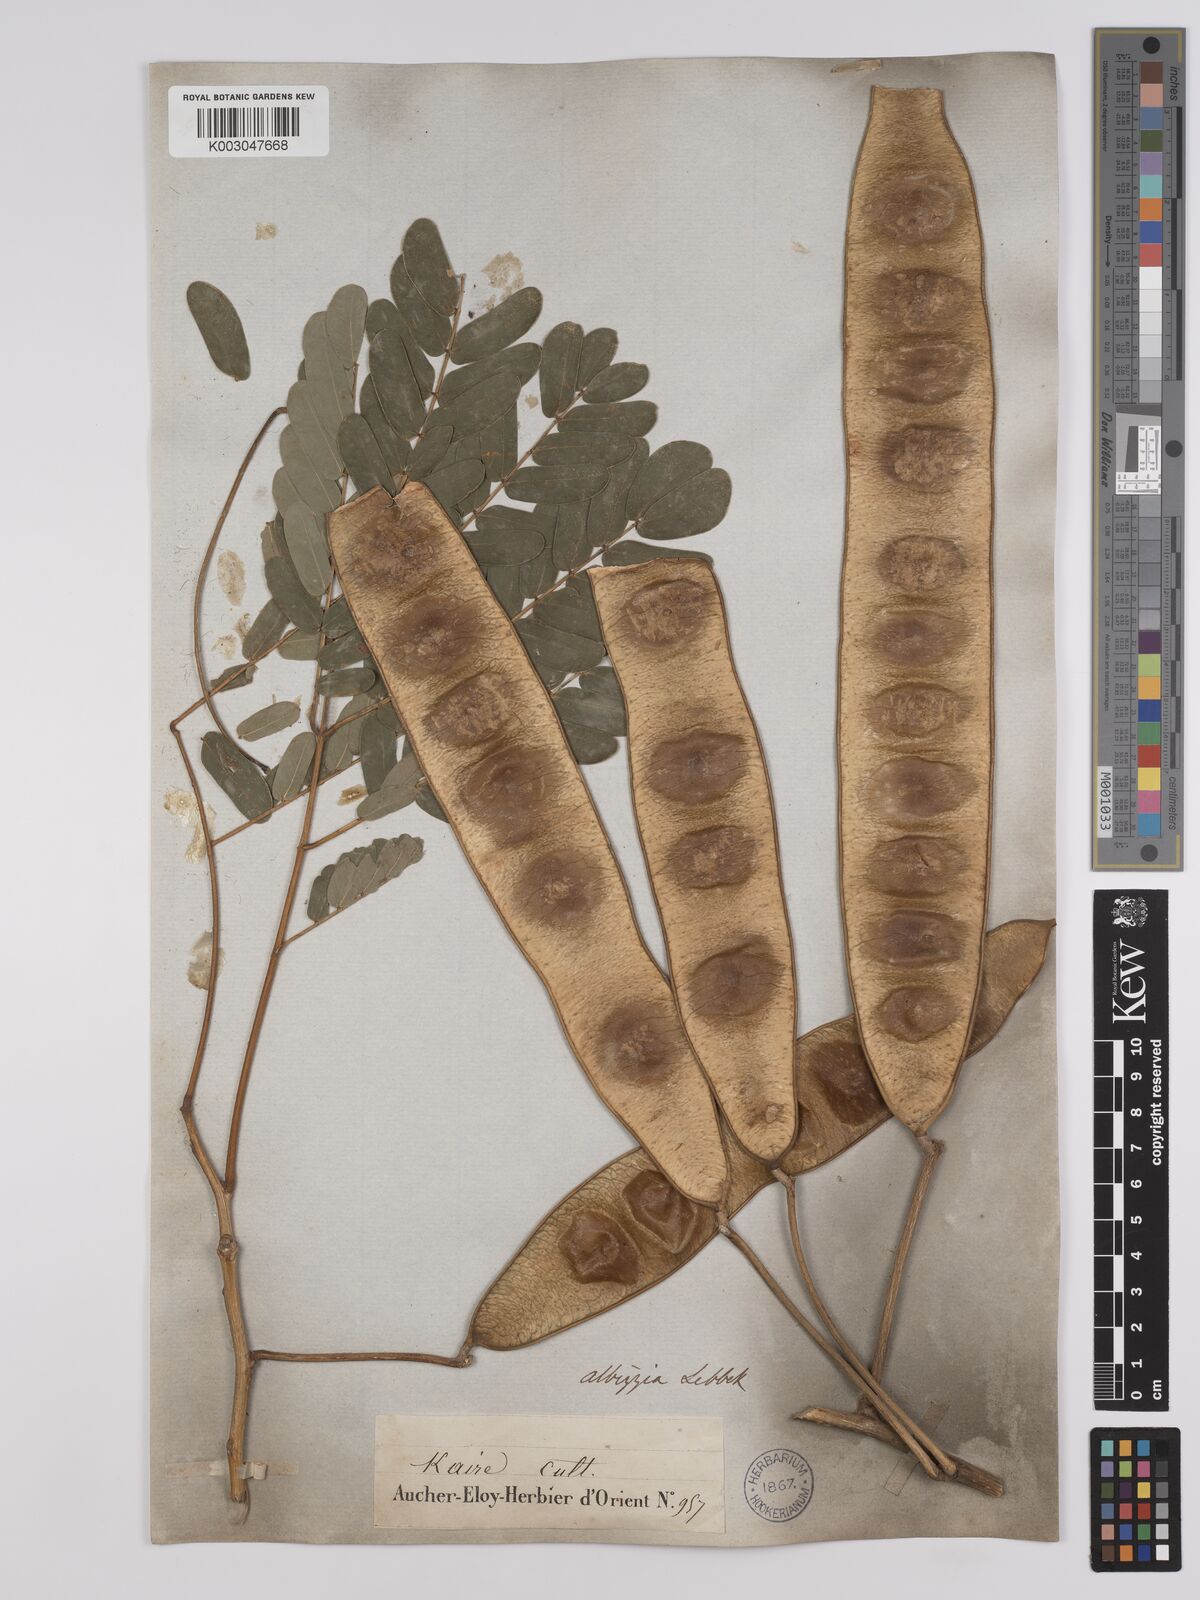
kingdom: Plantae
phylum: Tracheophyta
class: Magnoliopsida
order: Fabales
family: Fabaceae
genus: Albizia
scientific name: Albizia lebbeck
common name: Woman's tongue
